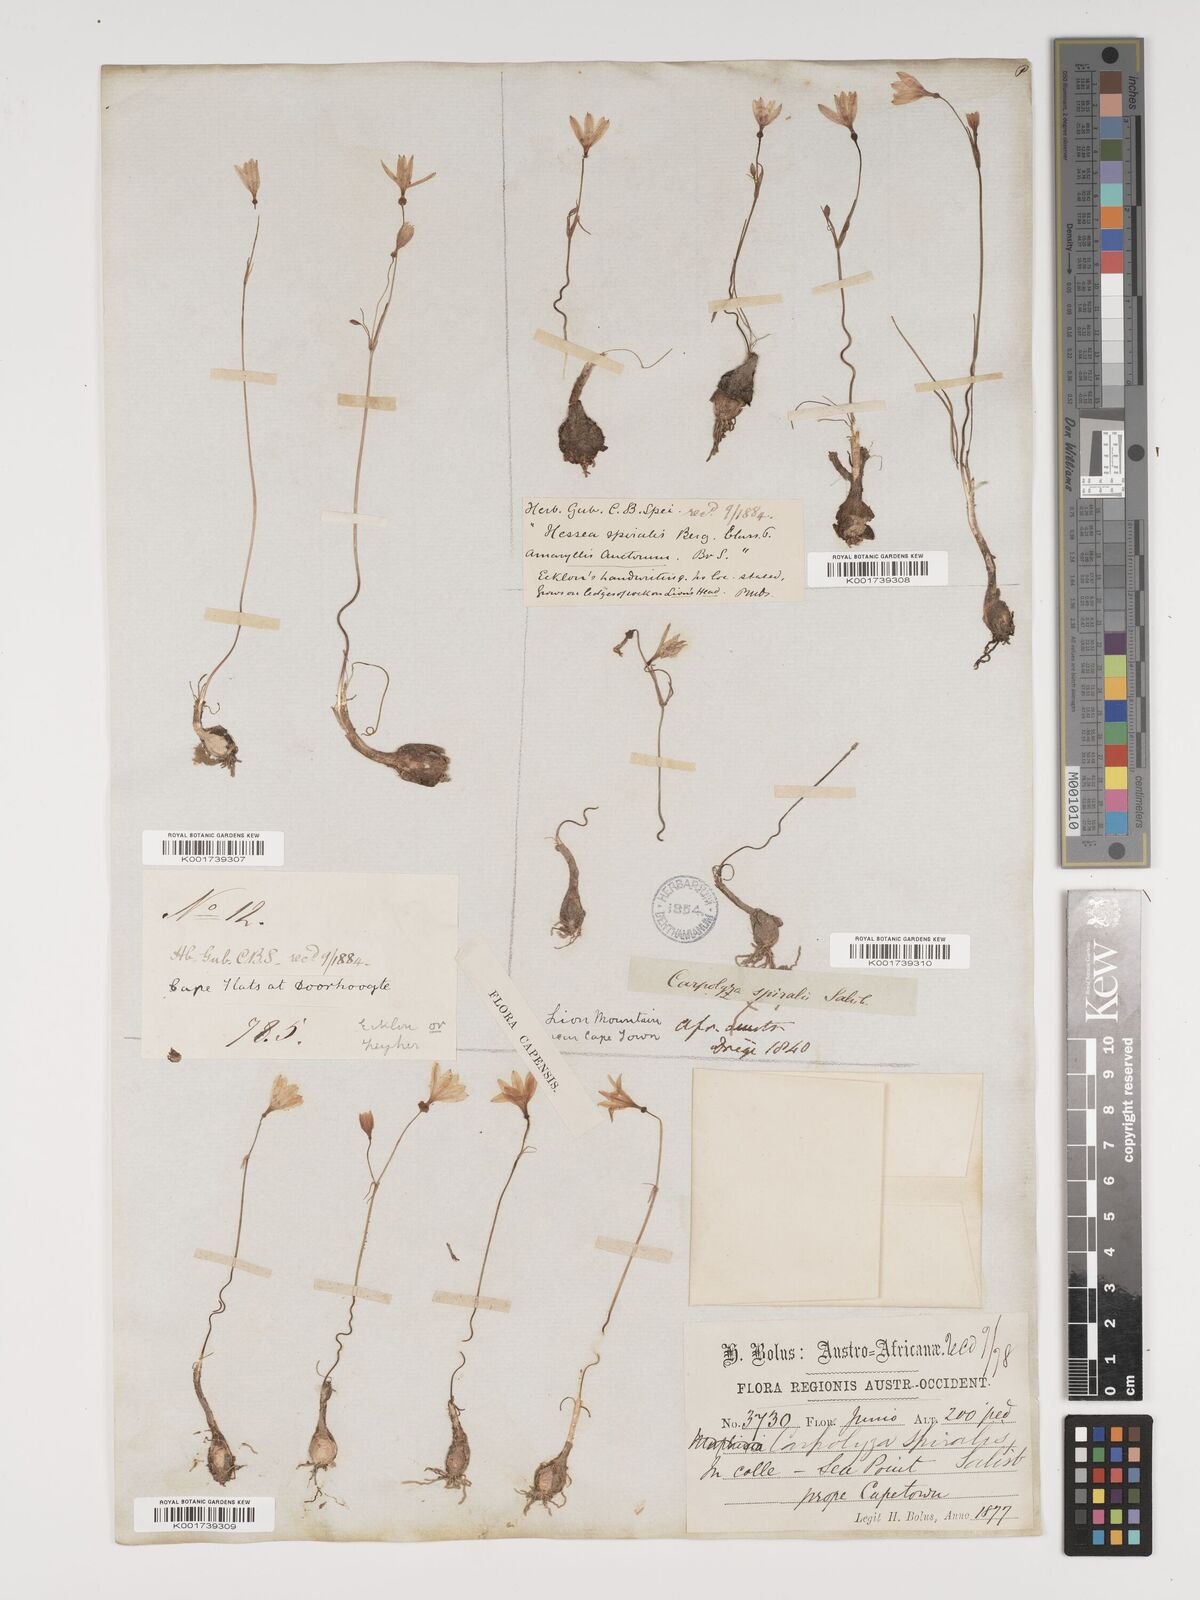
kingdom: Plantae
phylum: Tracheophyta
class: Liliopsida
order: Asparagales
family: Amaryllidaceae
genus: Strumaria
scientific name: Strumaria spiralis
